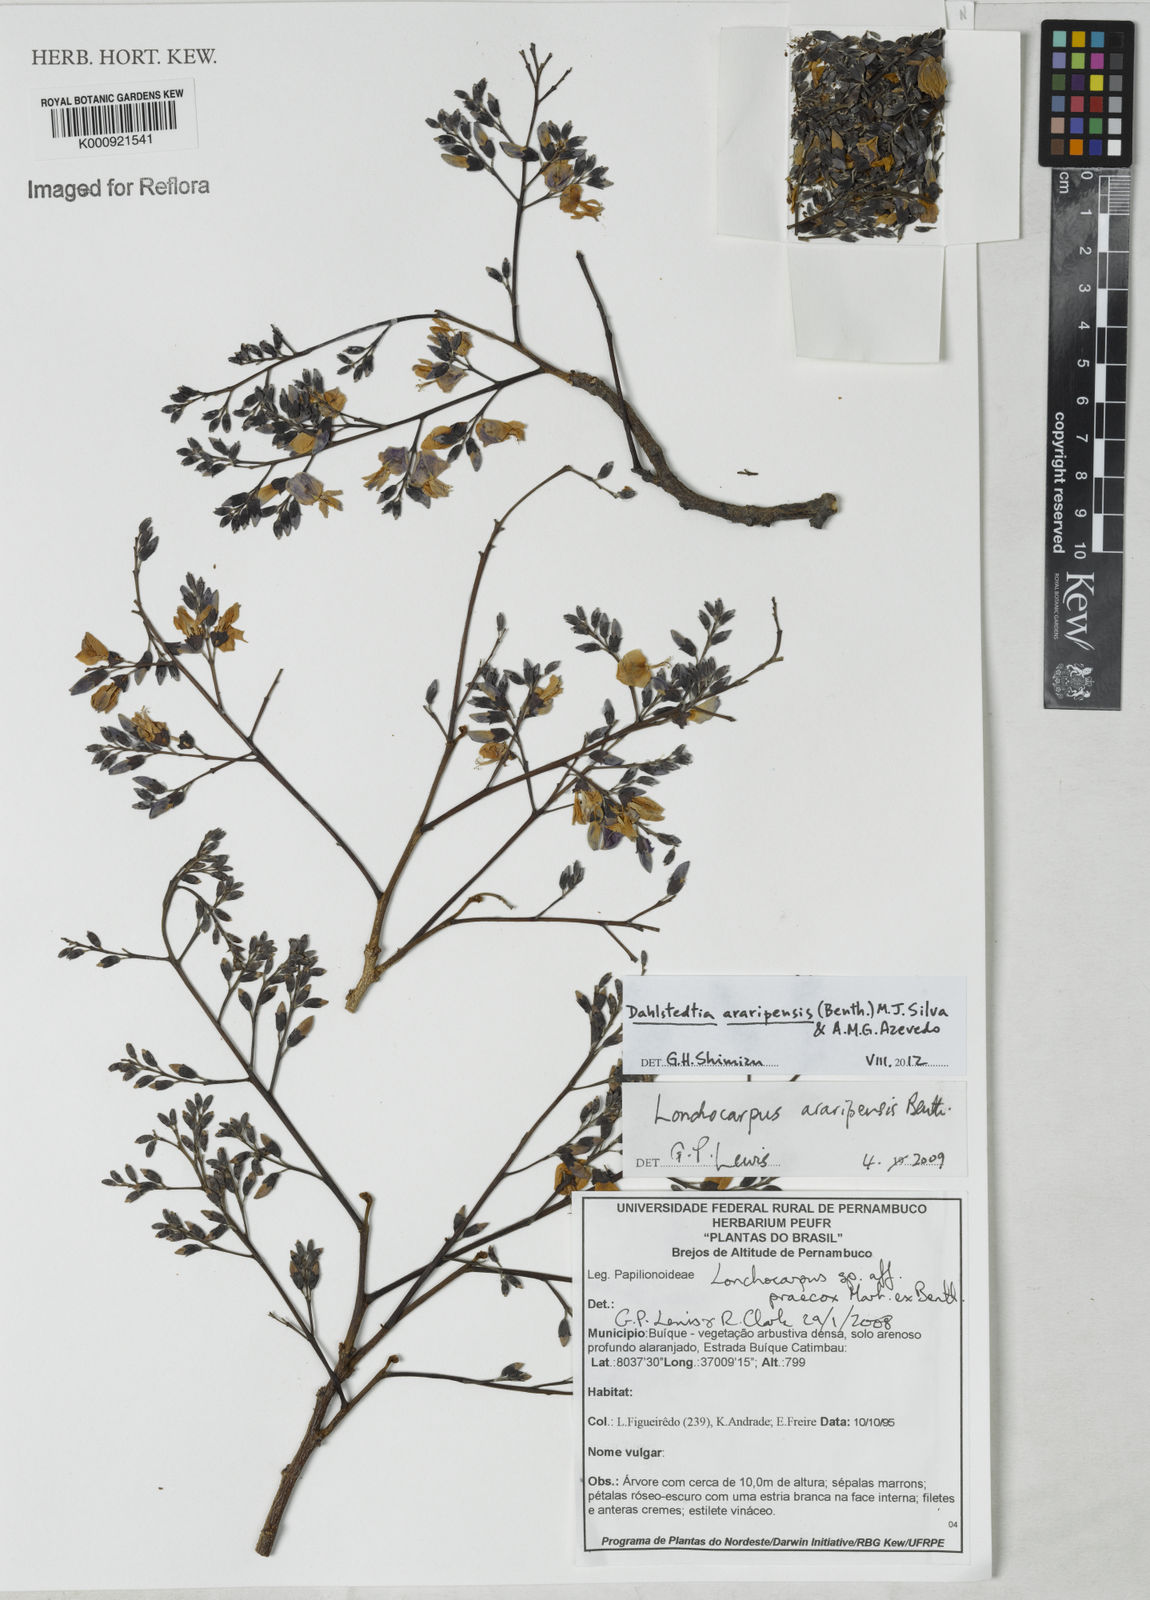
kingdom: Plantae
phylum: Tracheophyta
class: Magnoliopsida
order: Fabales
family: Fabaceae
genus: Dahlstedtia
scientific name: Dahlstedtia araripensis
